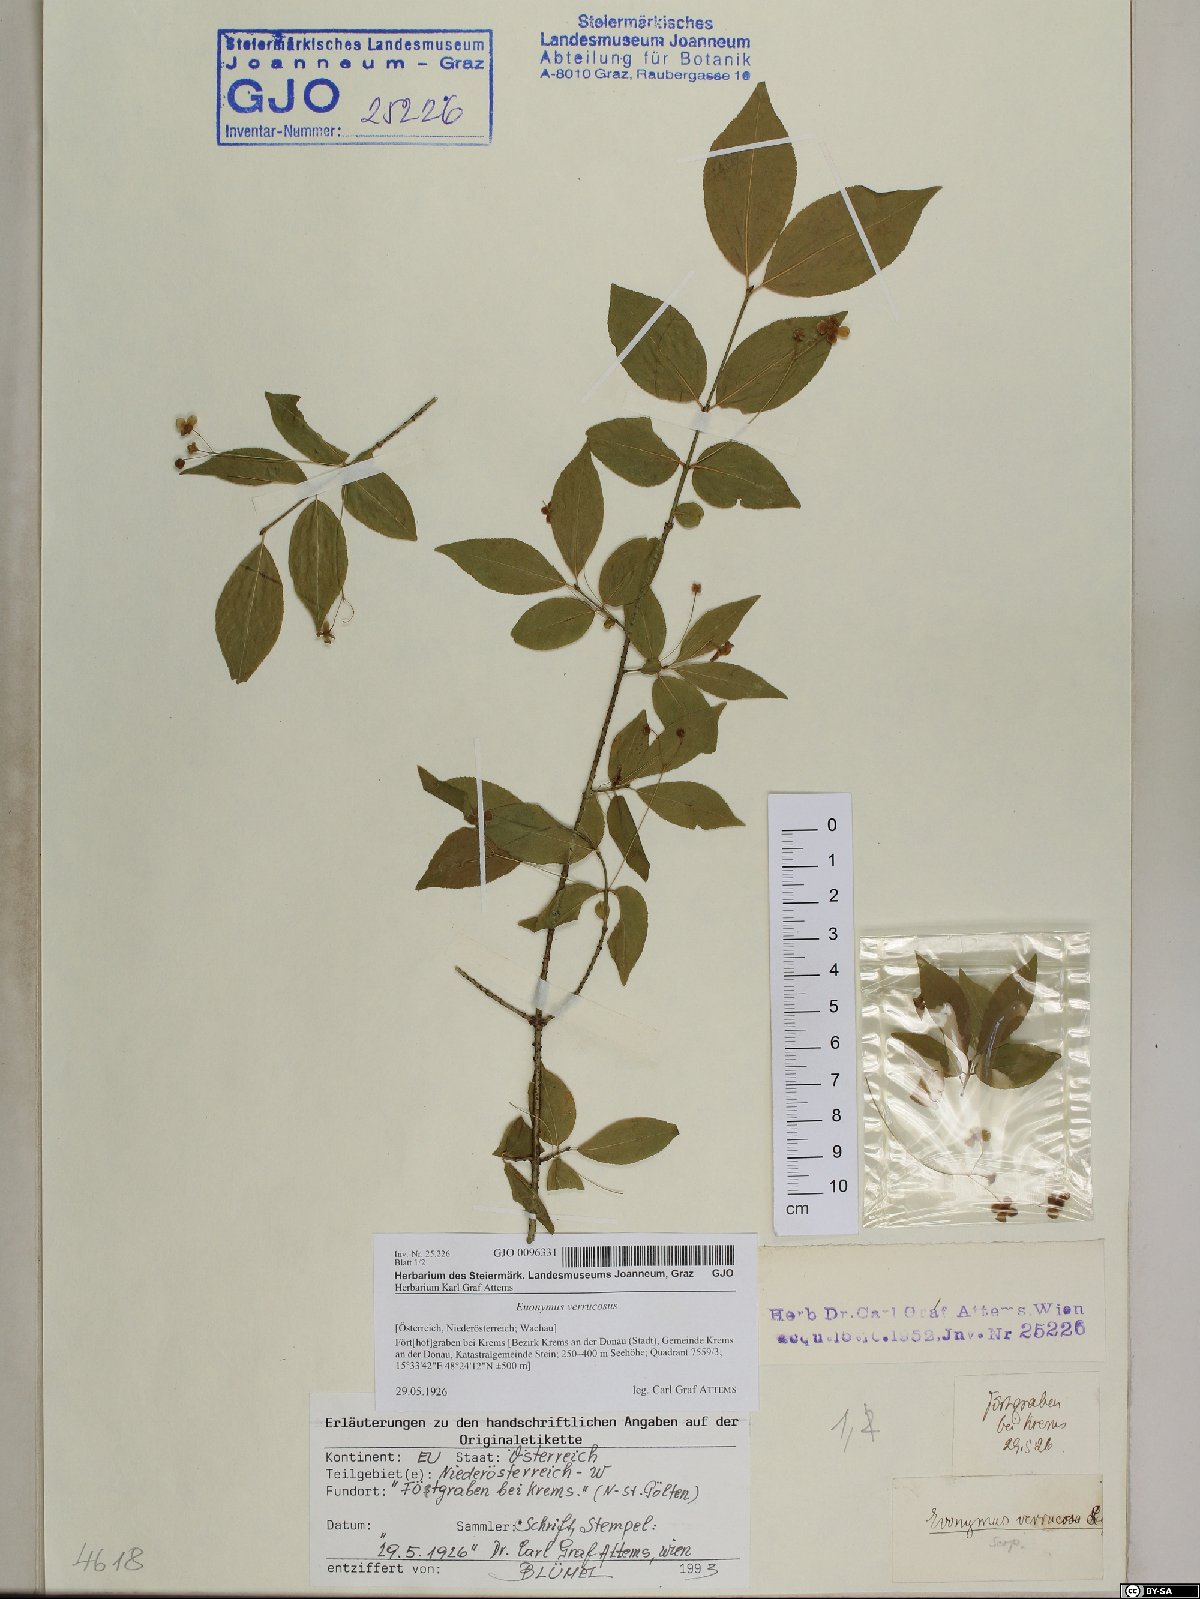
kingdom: Plantae
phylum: Tracheophyta
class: Magnoliopsida
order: Celastrales
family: Celastraceae
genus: Euonymus
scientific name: Euonymus verrucosus
